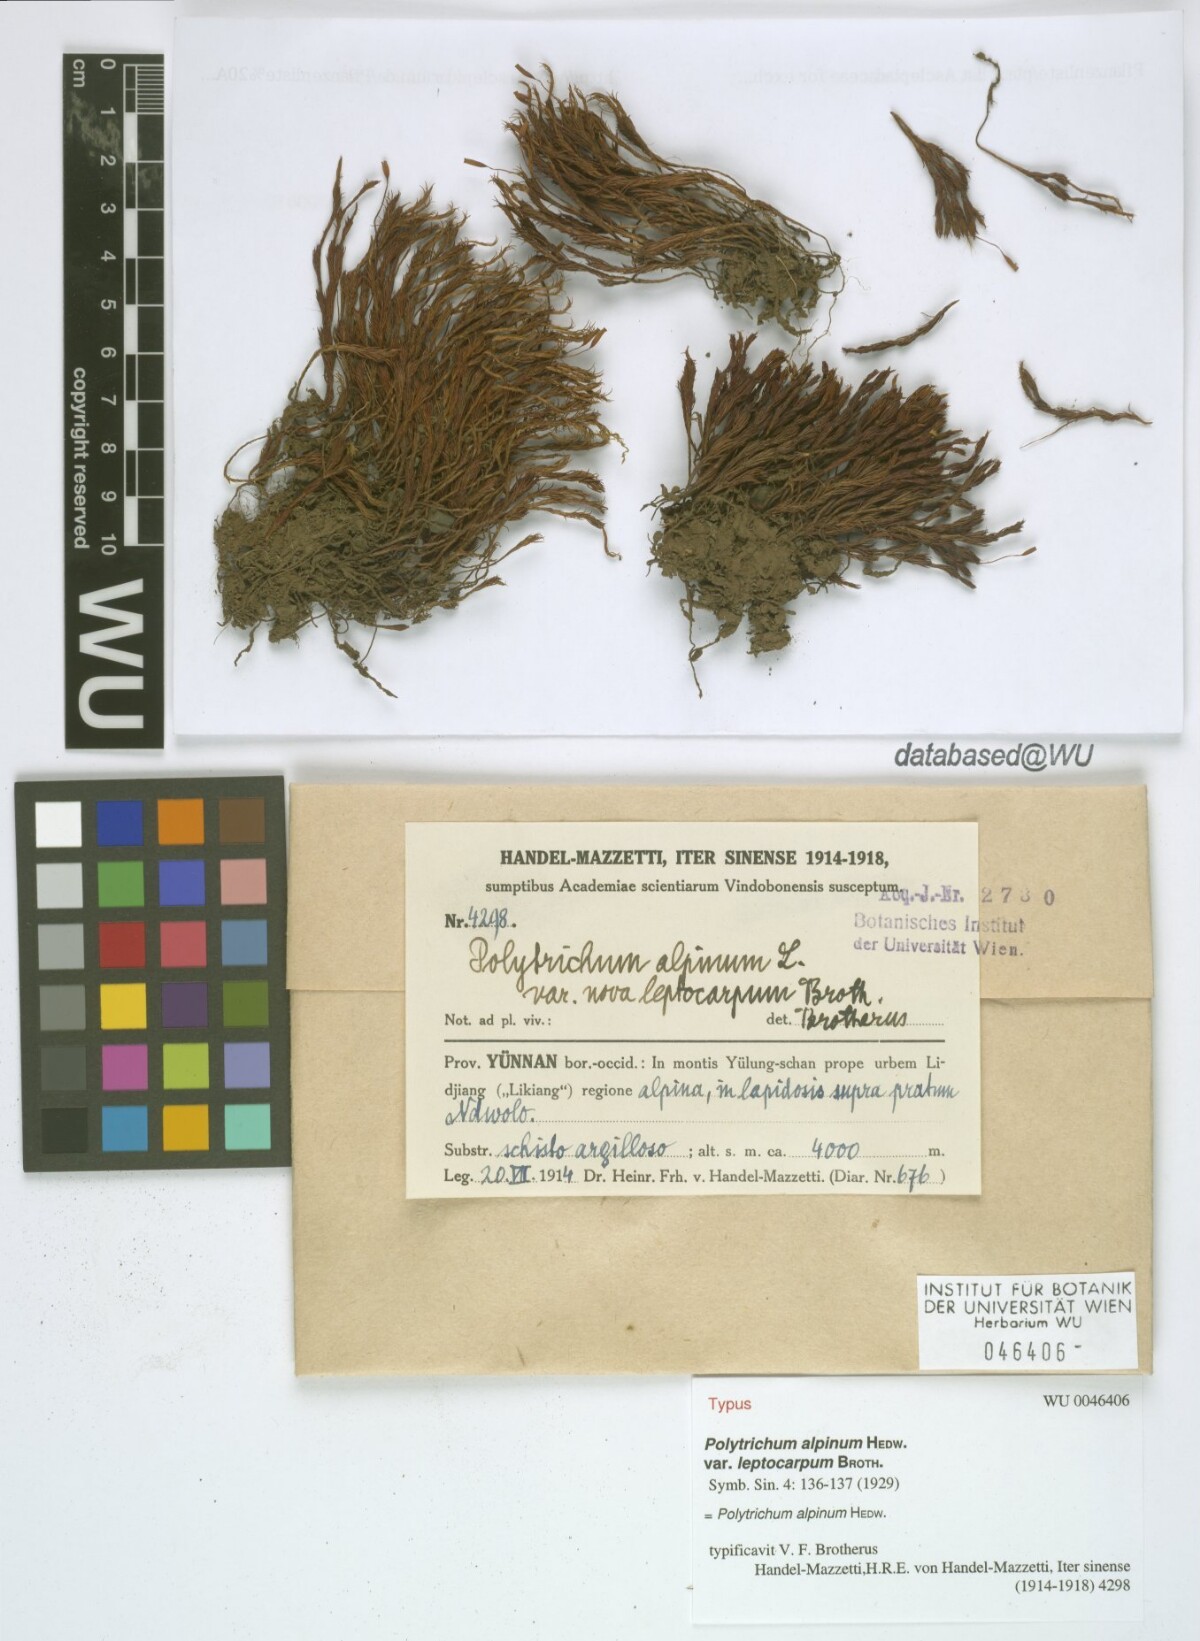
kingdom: Plantae
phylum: Bryophyta
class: Polytrichopsida
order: Polytrichales
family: Polytrichaceae
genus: Pogonatum
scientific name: Pogonatum urnigerum
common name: Urn hair moss
